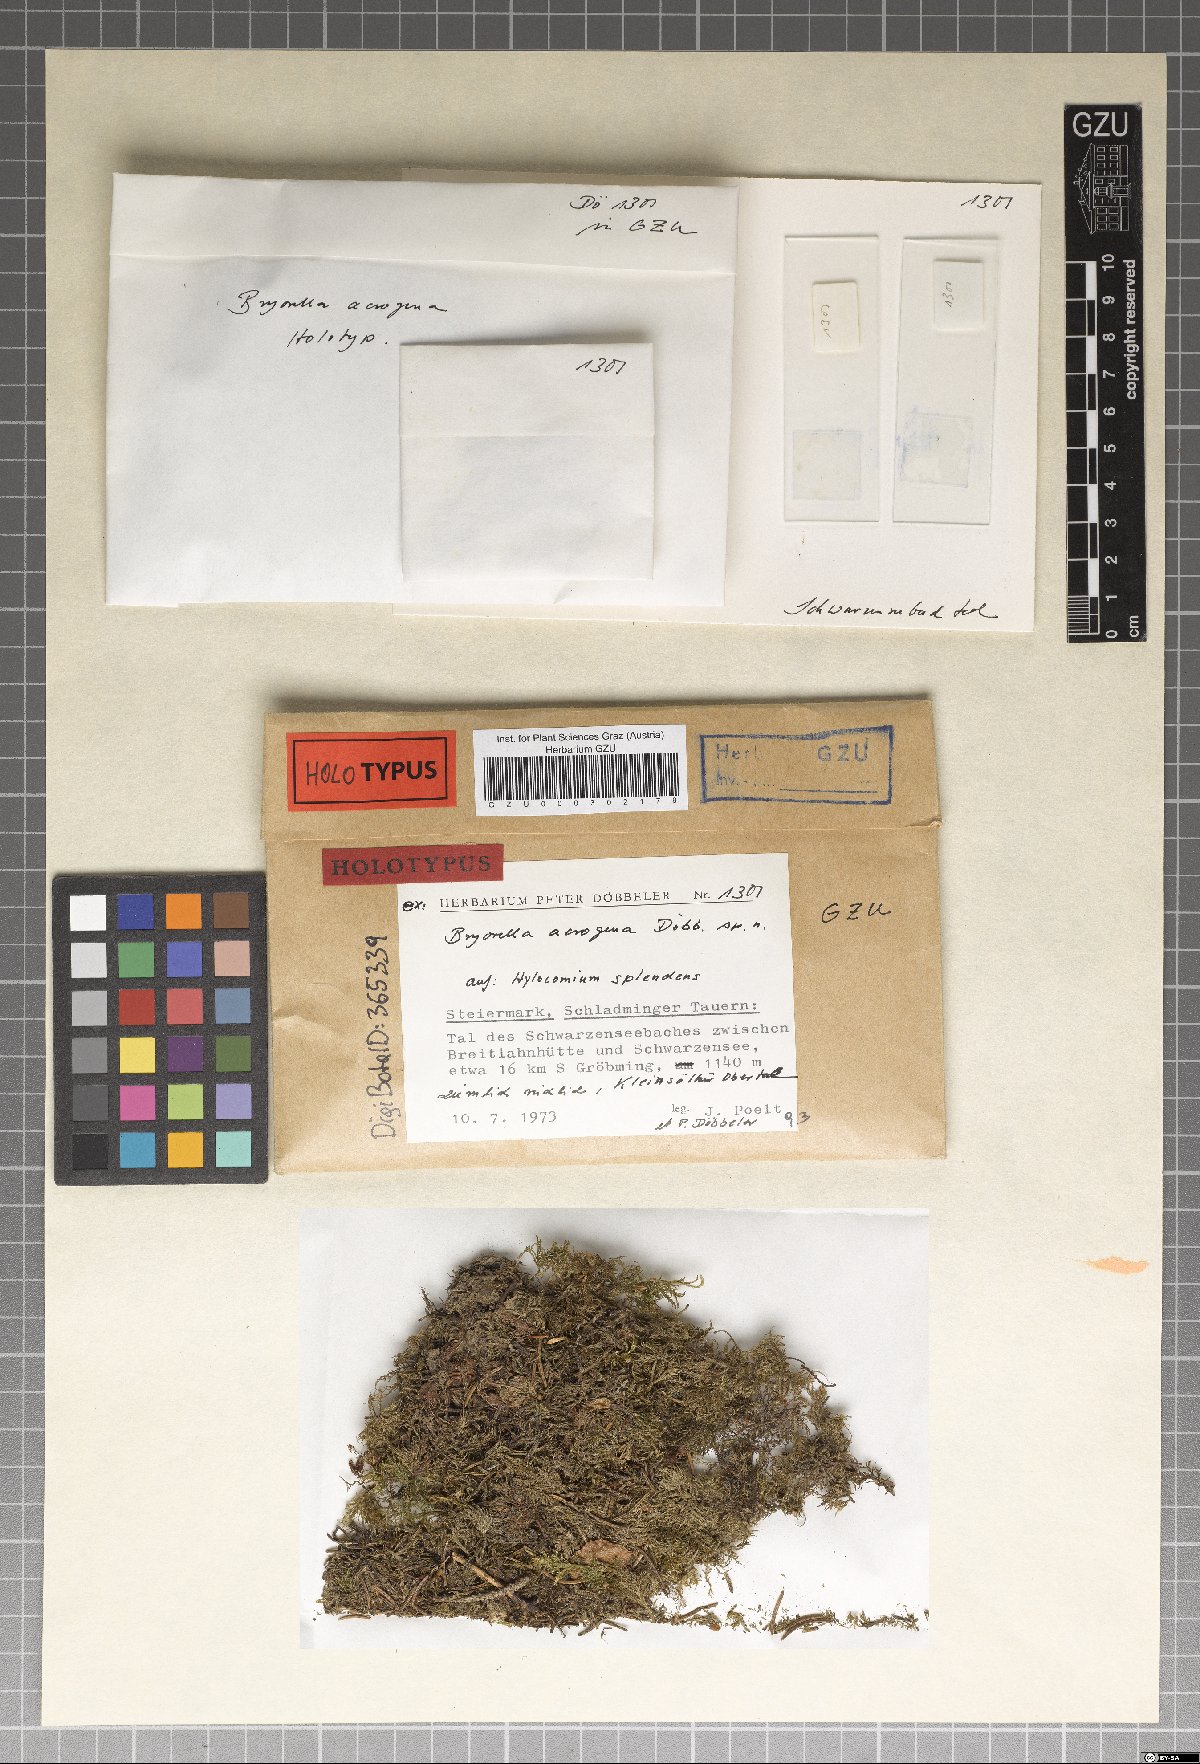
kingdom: Fungi
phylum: Ascomycota
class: Dothideomycetes
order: Dothideales
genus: Bryorella
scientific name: Bryorella acrogena
